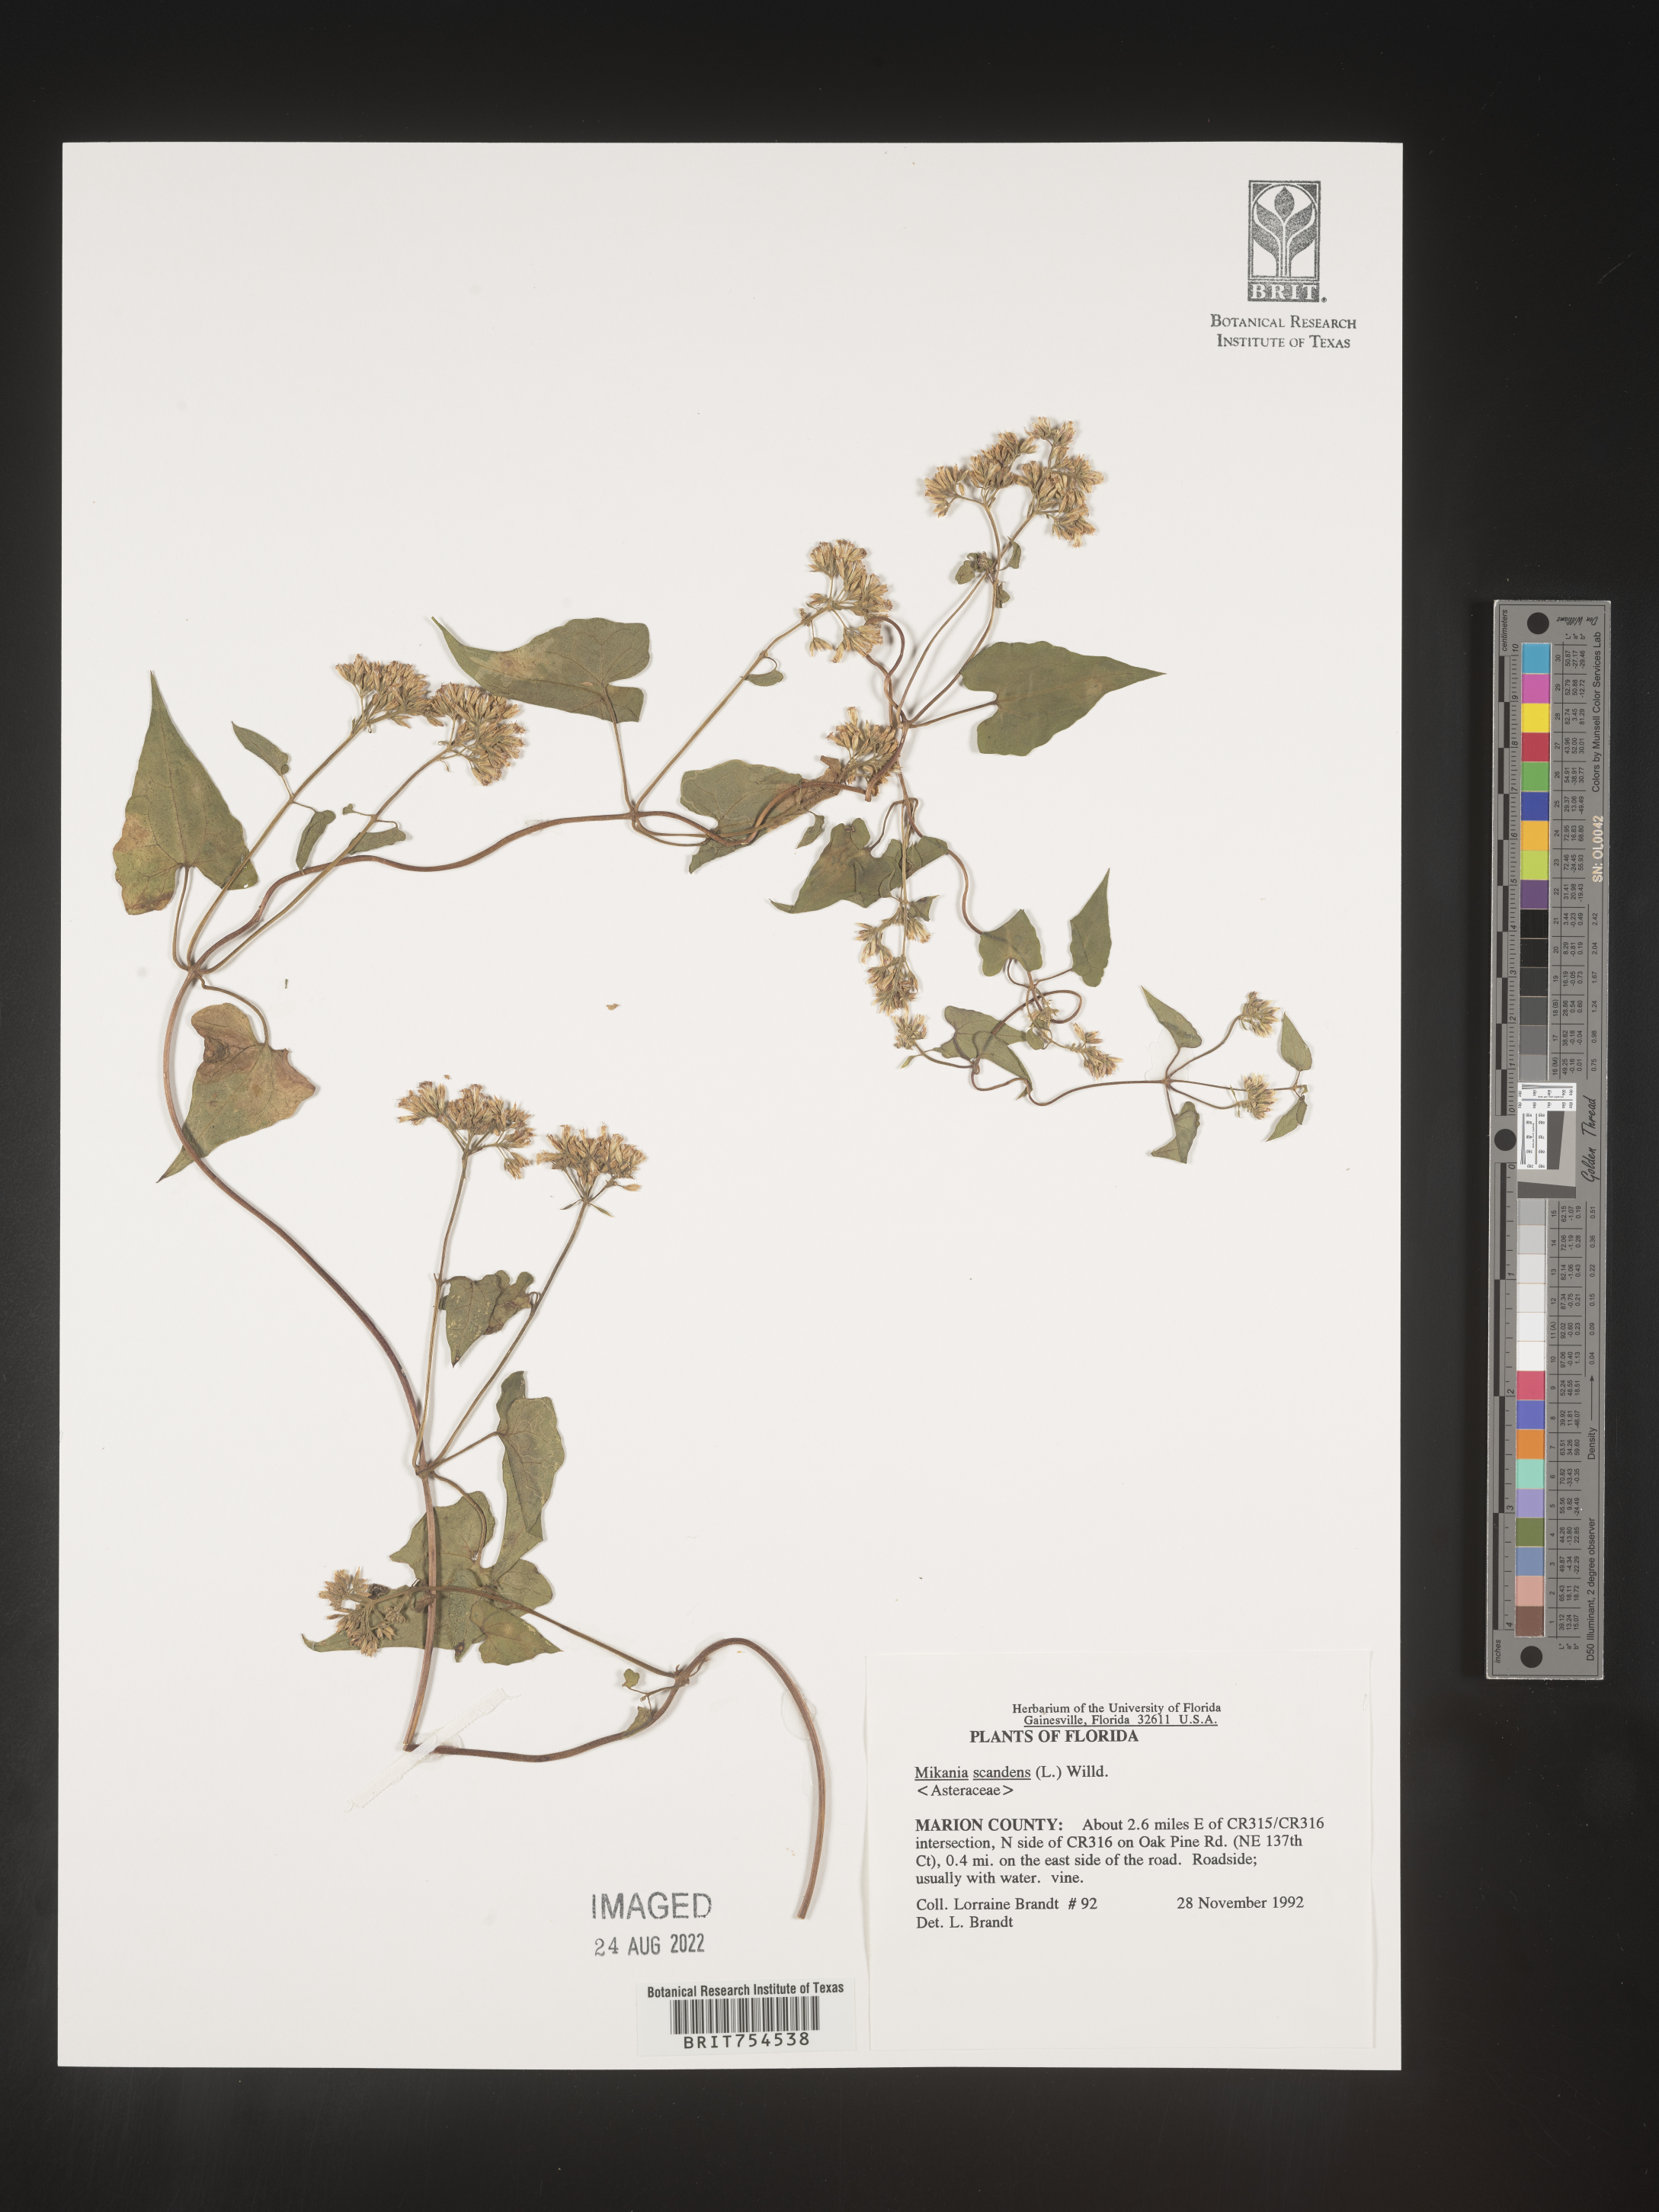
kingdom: Plantae
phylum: Tracheophyta
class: Magnoliopsida
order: Asterales
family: Asteraceae
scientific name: Asteraceae
